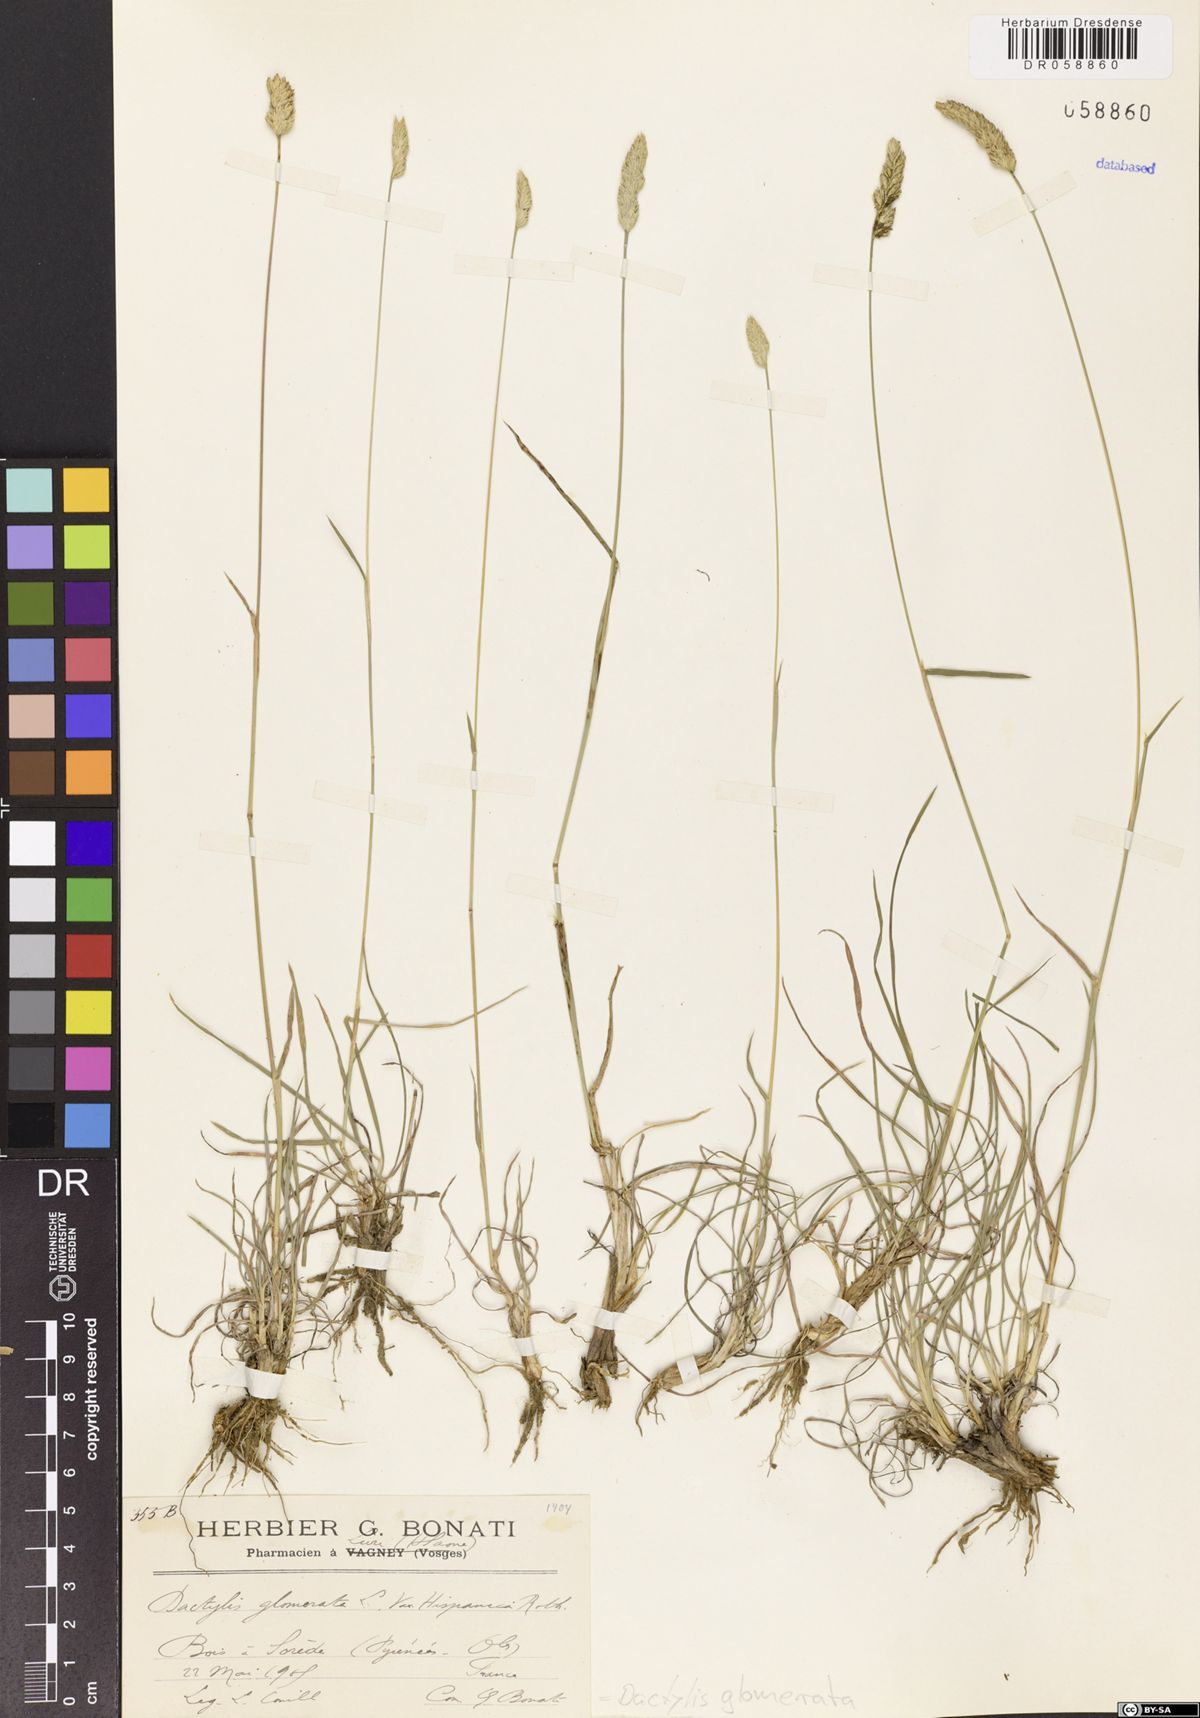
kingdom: Plantae
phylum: Tracheophyta
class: Liliopsida
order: Poales
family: Poaceae
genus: Dactylis
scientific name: Dactylis glomerata
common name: Orchardgrass
